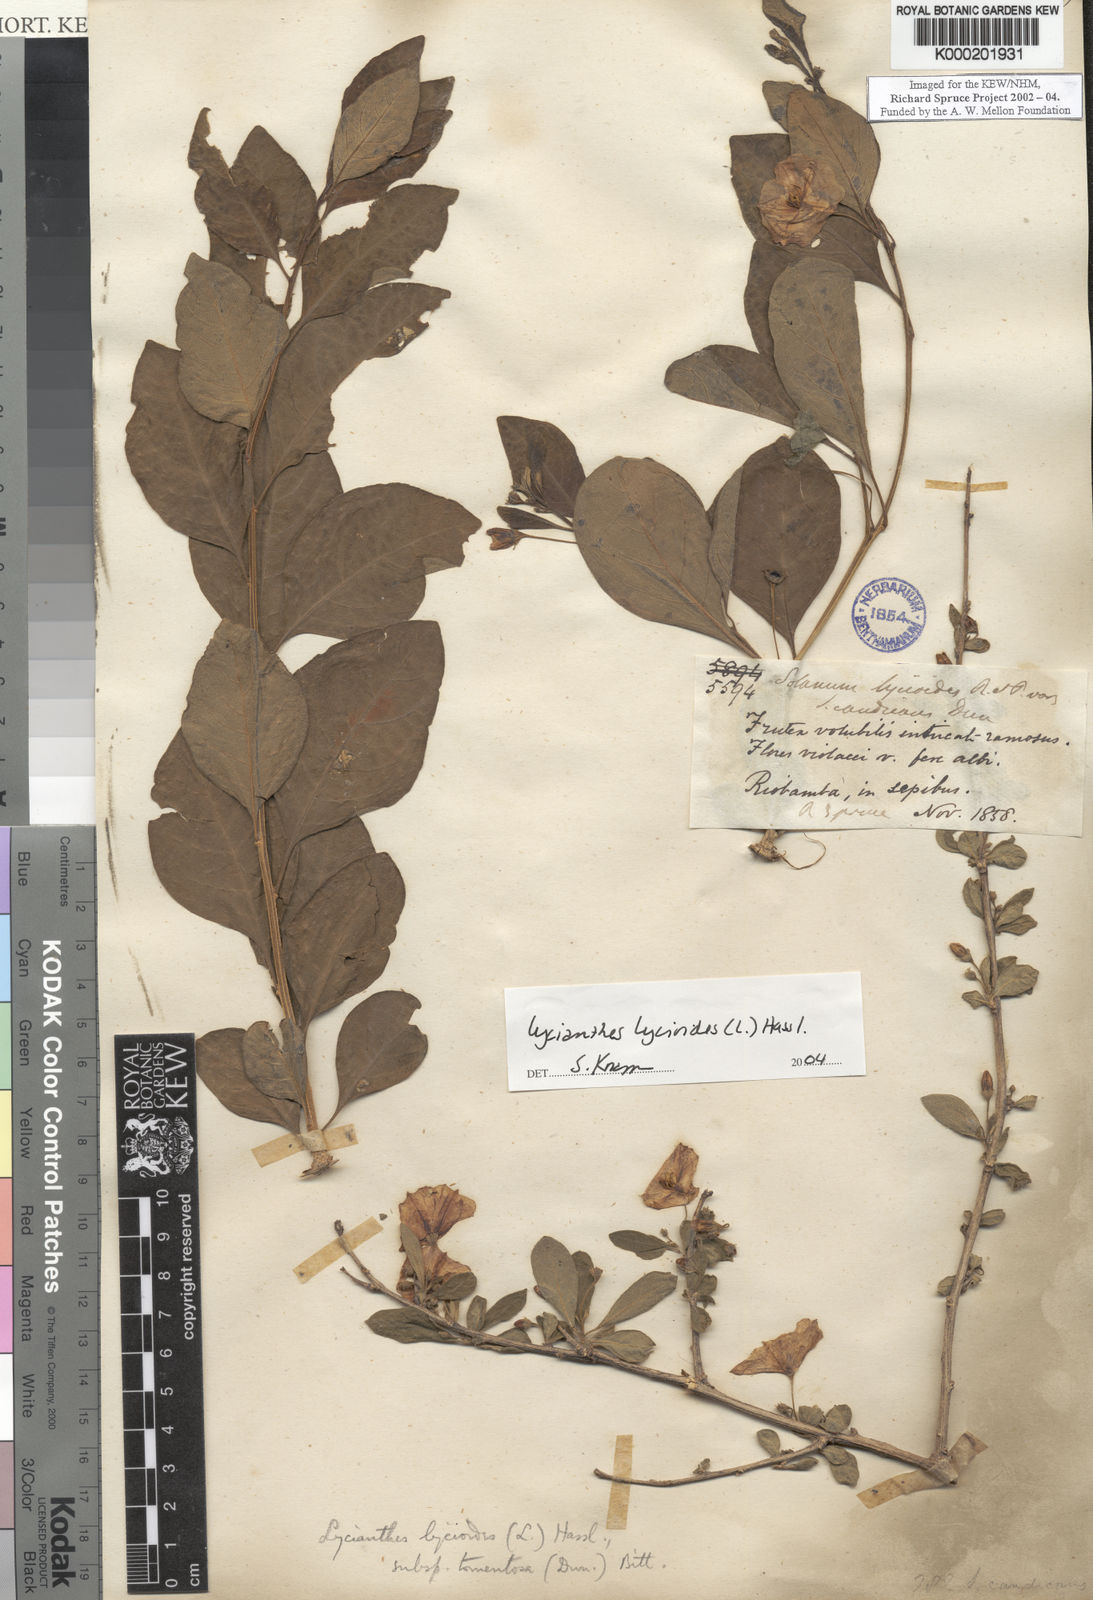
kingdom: Plantae
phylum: Tracheophyta
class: Magnoliopsida
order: Solanales
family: Solanaceae
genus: Lycianthes
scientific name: Lycianthes lycioides
